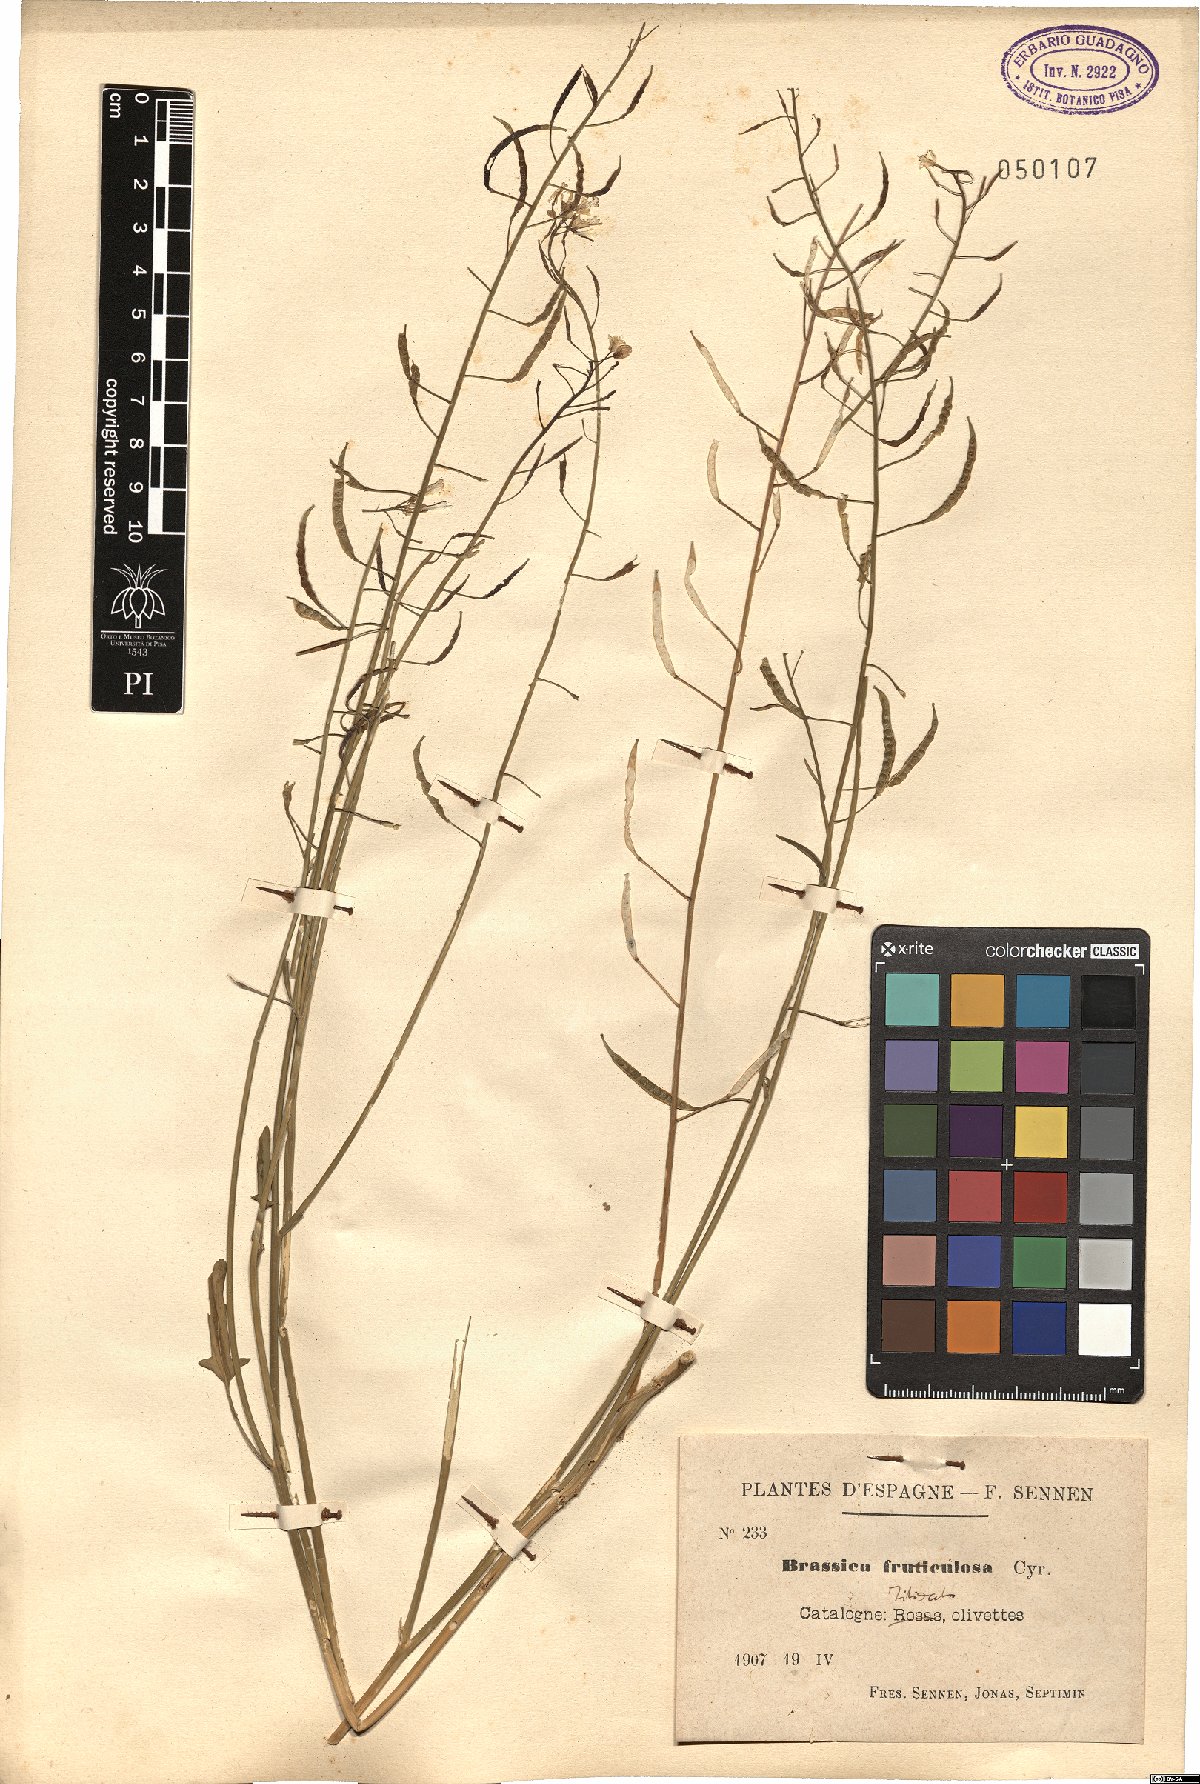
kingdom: Plantae
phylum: Tracheophyta
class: Magnoliopsida
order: Brassicales
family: Brassicaceae
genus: Brassica
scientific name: Brassica fruticulosa
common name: Twiggy turnip
